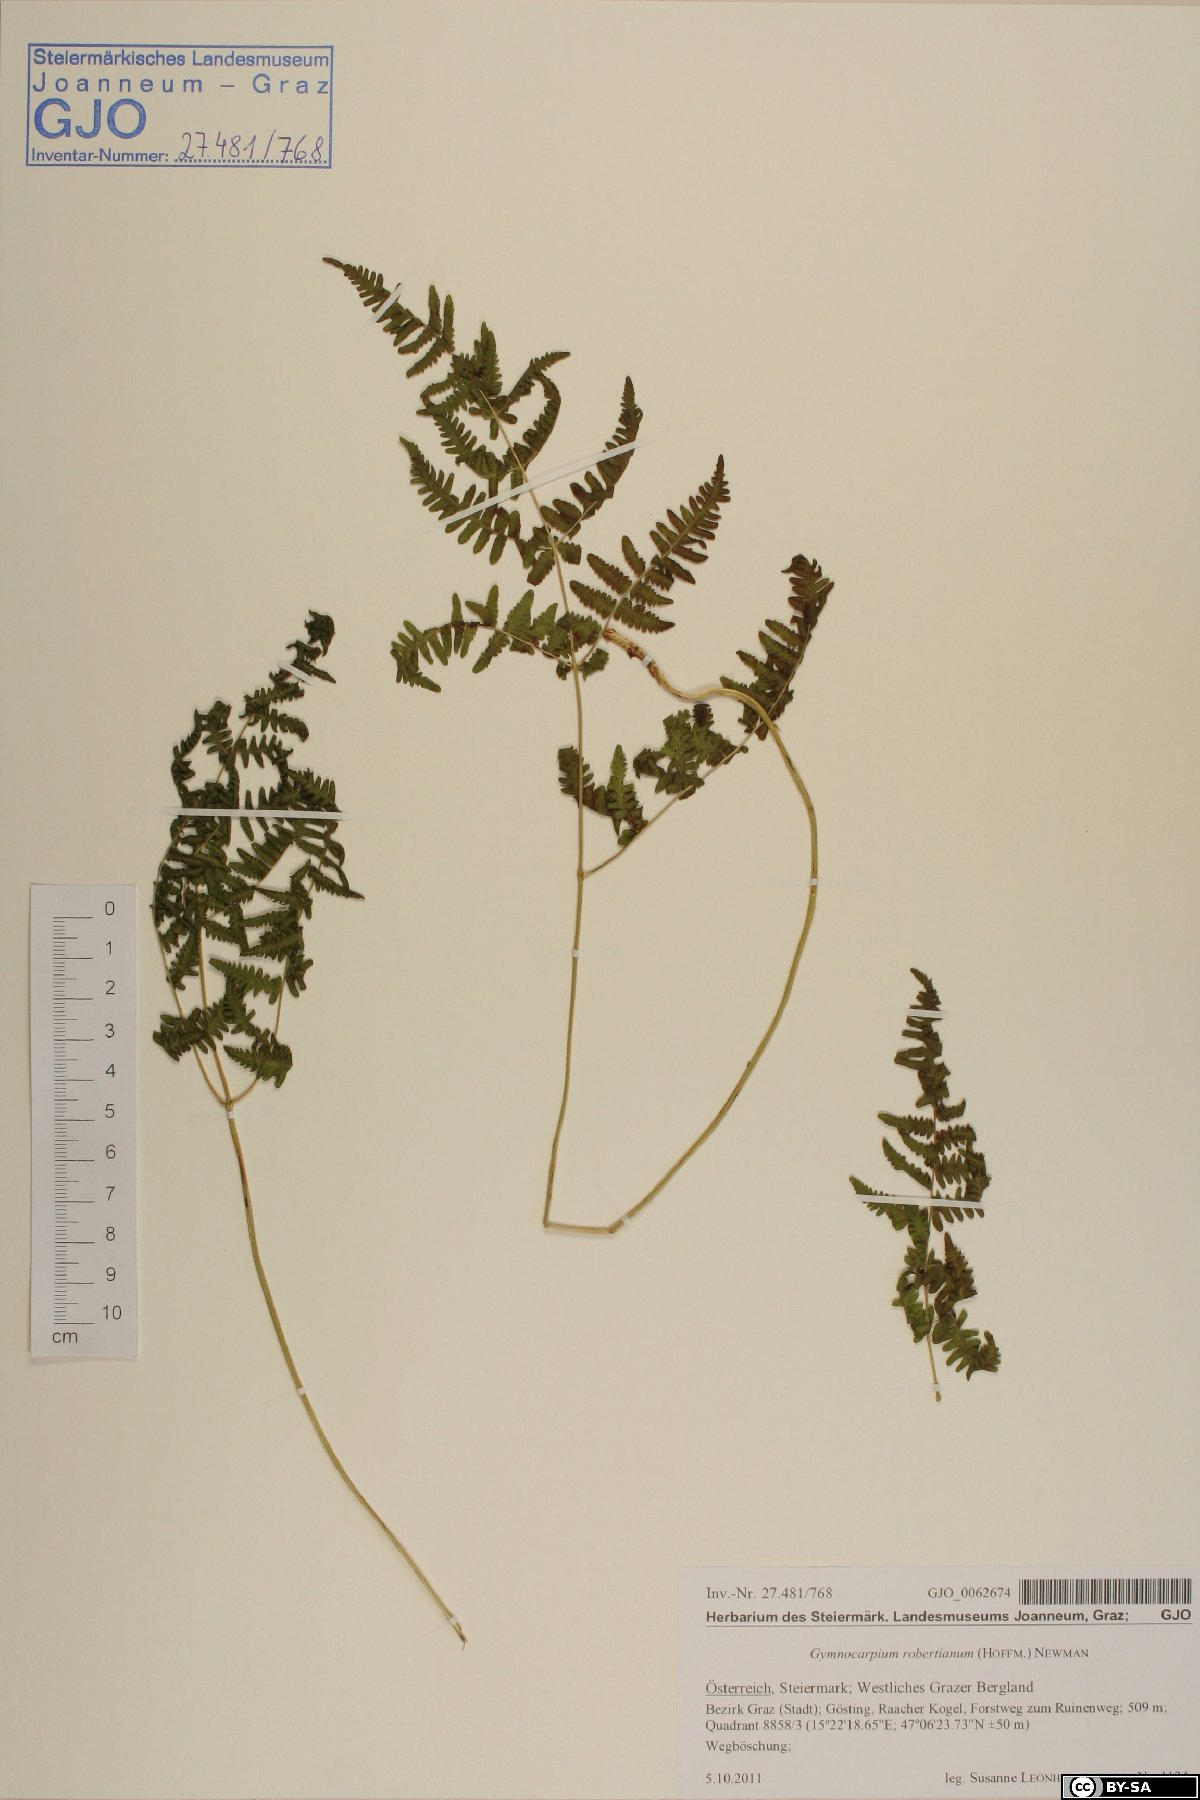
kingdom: Plantae
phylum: Tracheophyta
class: Polypodiopsida
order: Polypodiales
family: Cystopteridaceae
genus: Gymnocarpium
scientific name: Gymnocarpium robertianum
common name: Limestone fern
